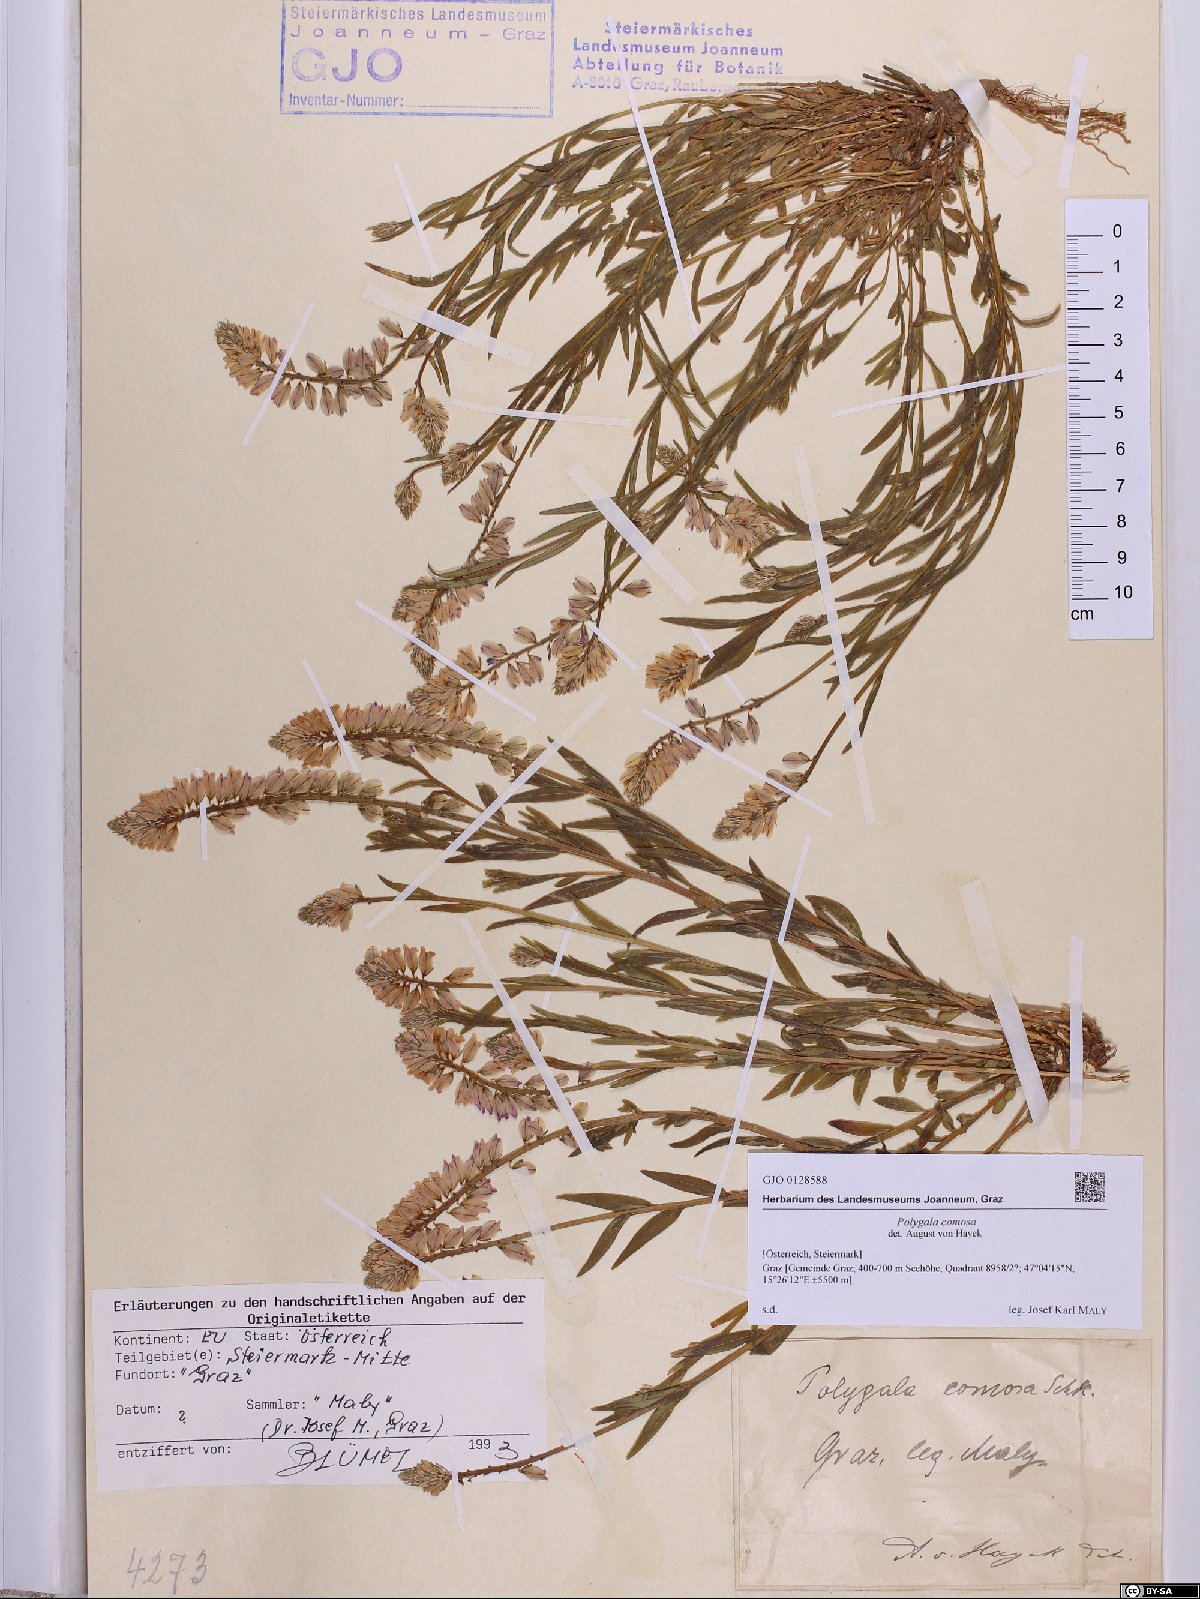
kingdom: Plantae
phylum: Tracheophyta
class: Magnoliopsida
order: Fabales
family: Polygalaceae
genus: Polygala
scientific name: Polygala comosa
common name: Tufted milkwort
